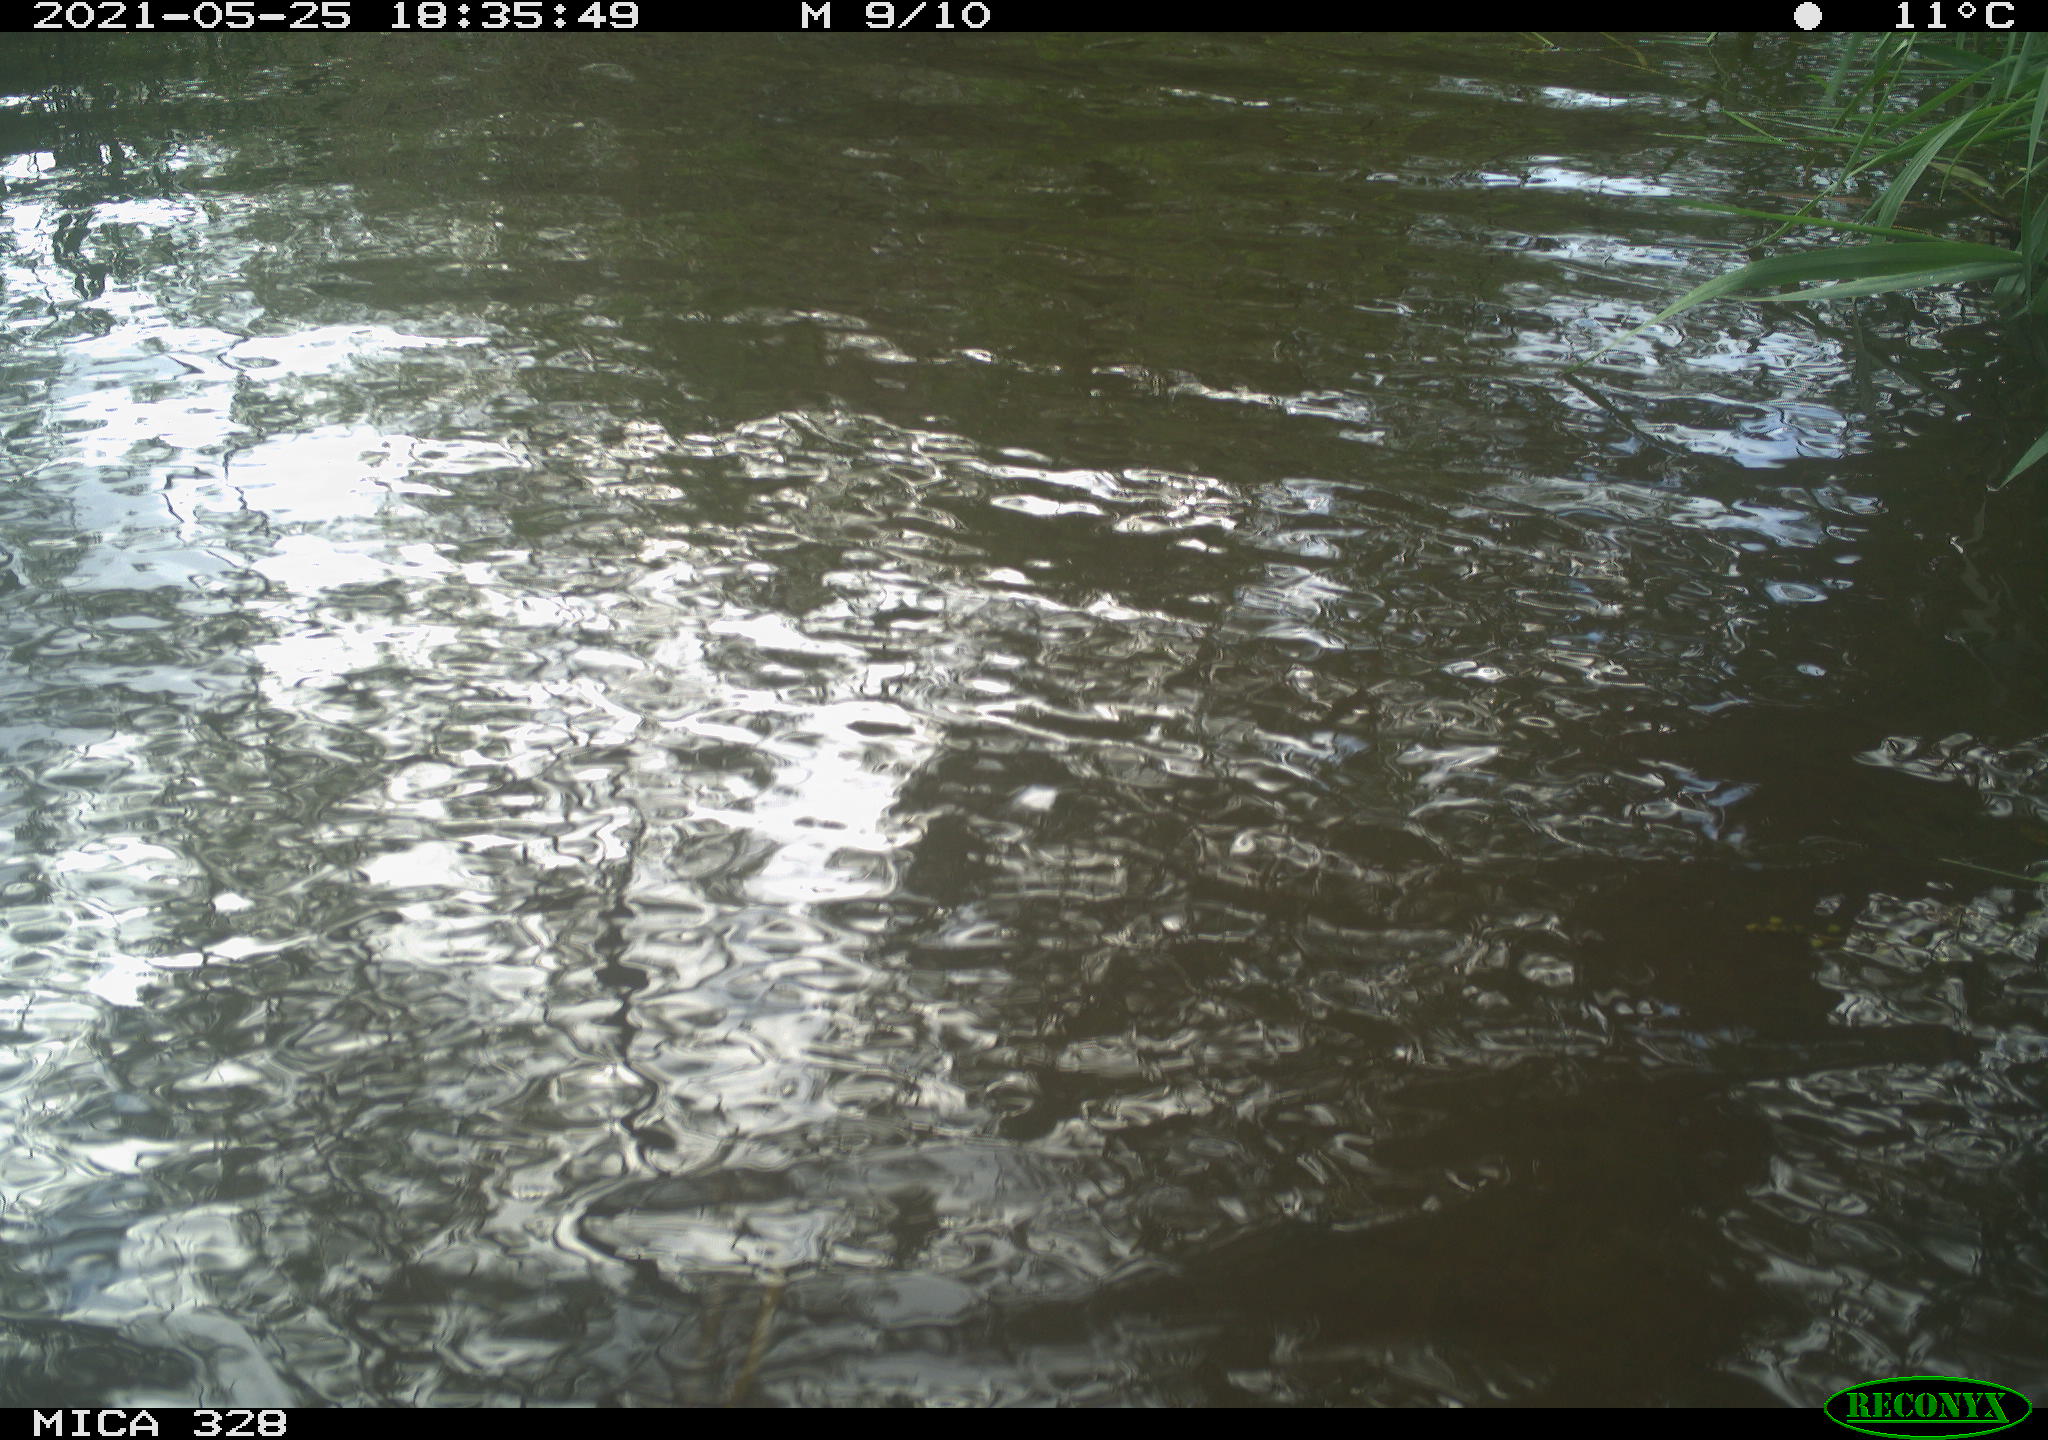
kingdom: Animalia
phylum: Chordata
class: Mammalia
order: Rodentia
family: Cricetidae
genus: Ondatra
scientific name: Ondatra zibethicus
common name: Muskrat
